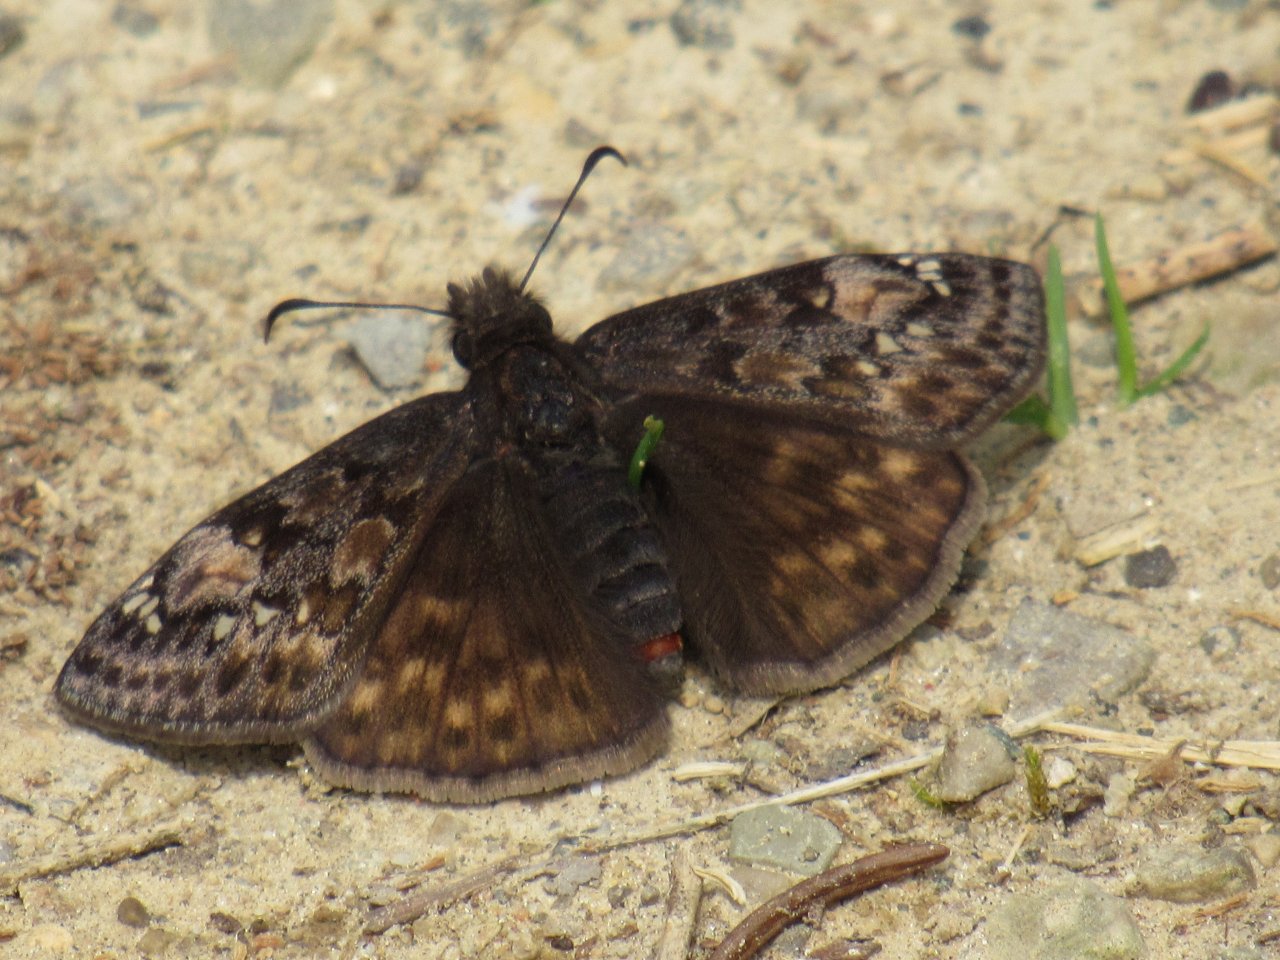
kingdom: Animalia
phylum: Arthropoda
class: Insecta
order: Lepidoptera
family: Hesperiidae
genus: Gesta
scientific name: Gesta
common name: Juvenal's Duskywing
